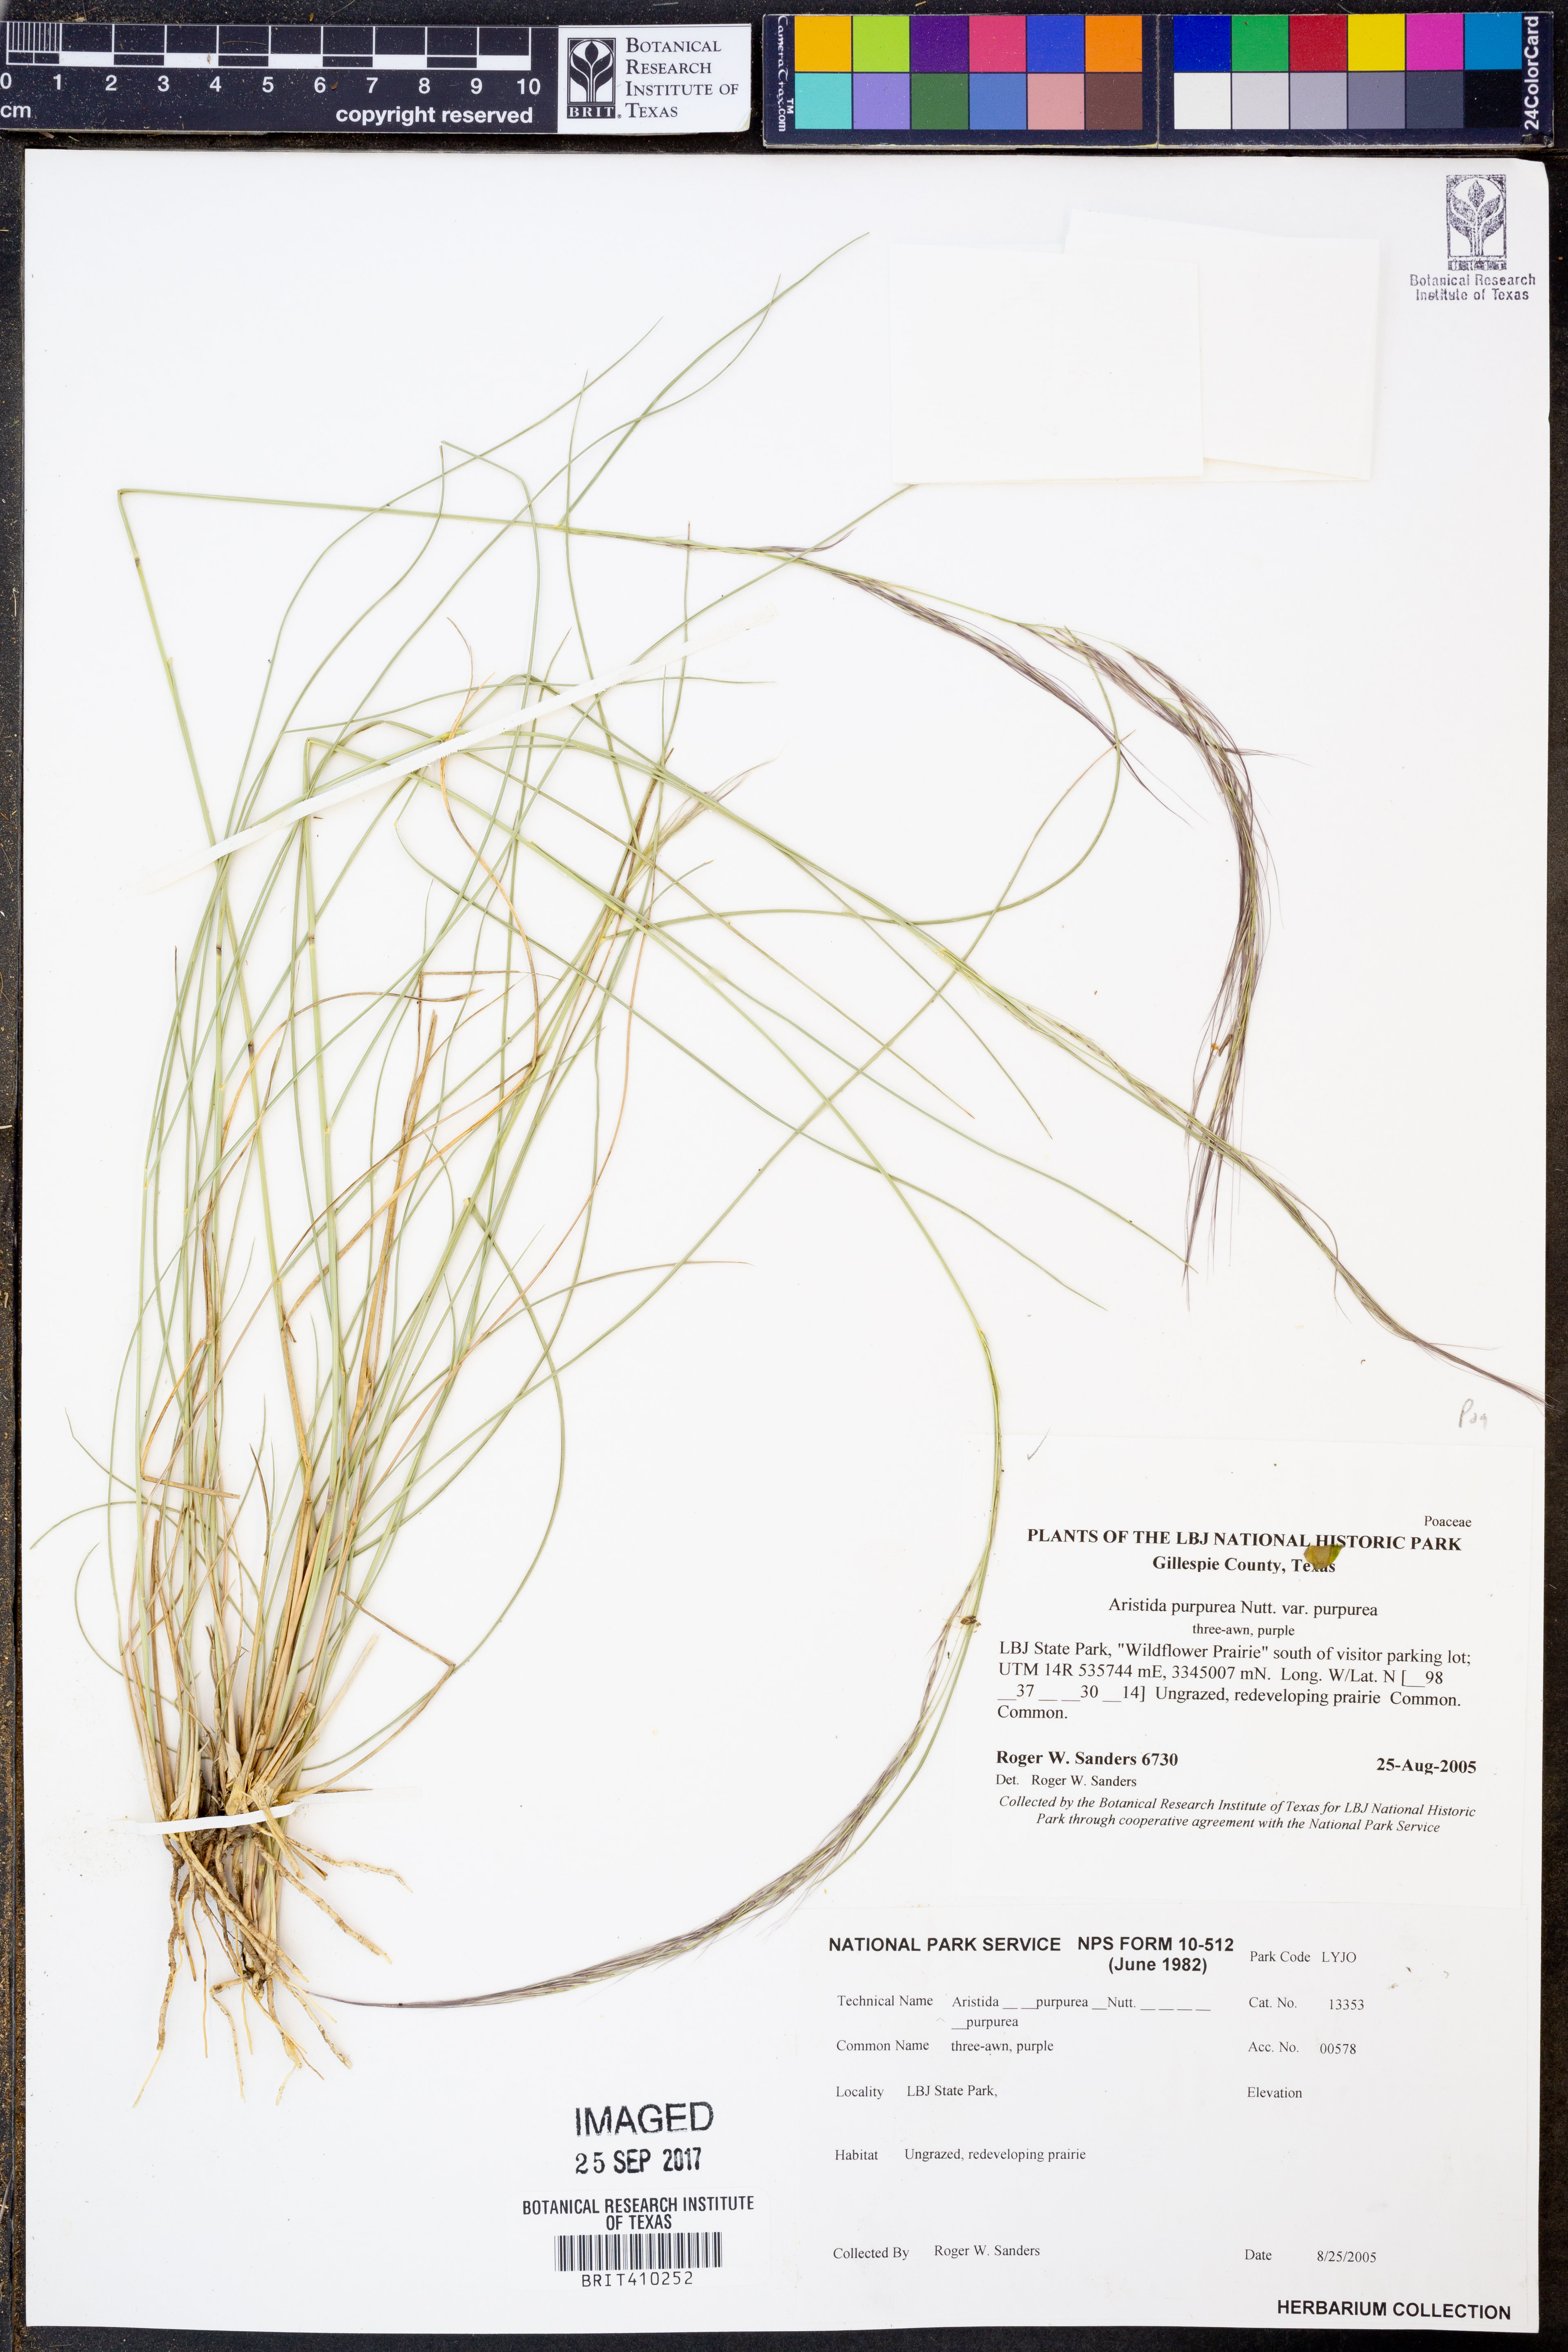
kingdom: Plantae
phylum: Tracheophyta
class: Liliopsida
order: Poales
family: Poaceae
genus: Aristida
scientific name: Aristida purpurea
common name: Purple threeawn
